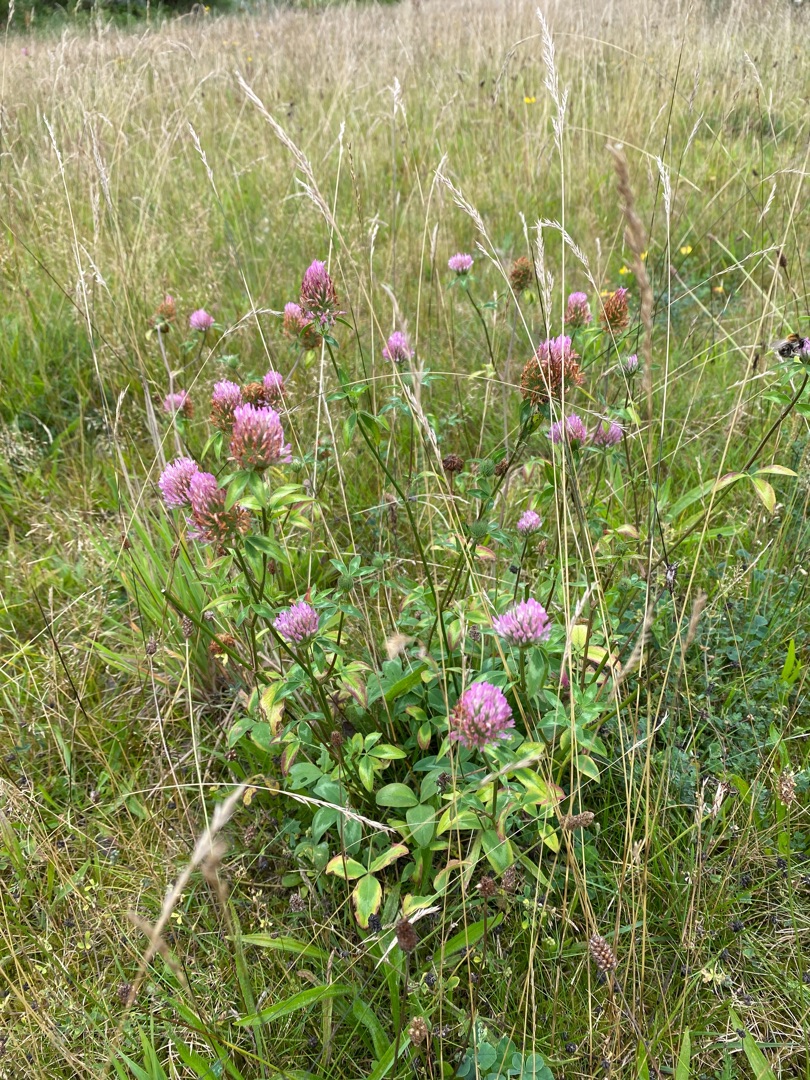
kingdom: Plantae
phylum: Tracheophyta
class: Magnoliopsida
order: Fabales
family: Fabaceae
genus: Trifolium
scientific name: Trifolium pratense
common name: Rød-kløver
